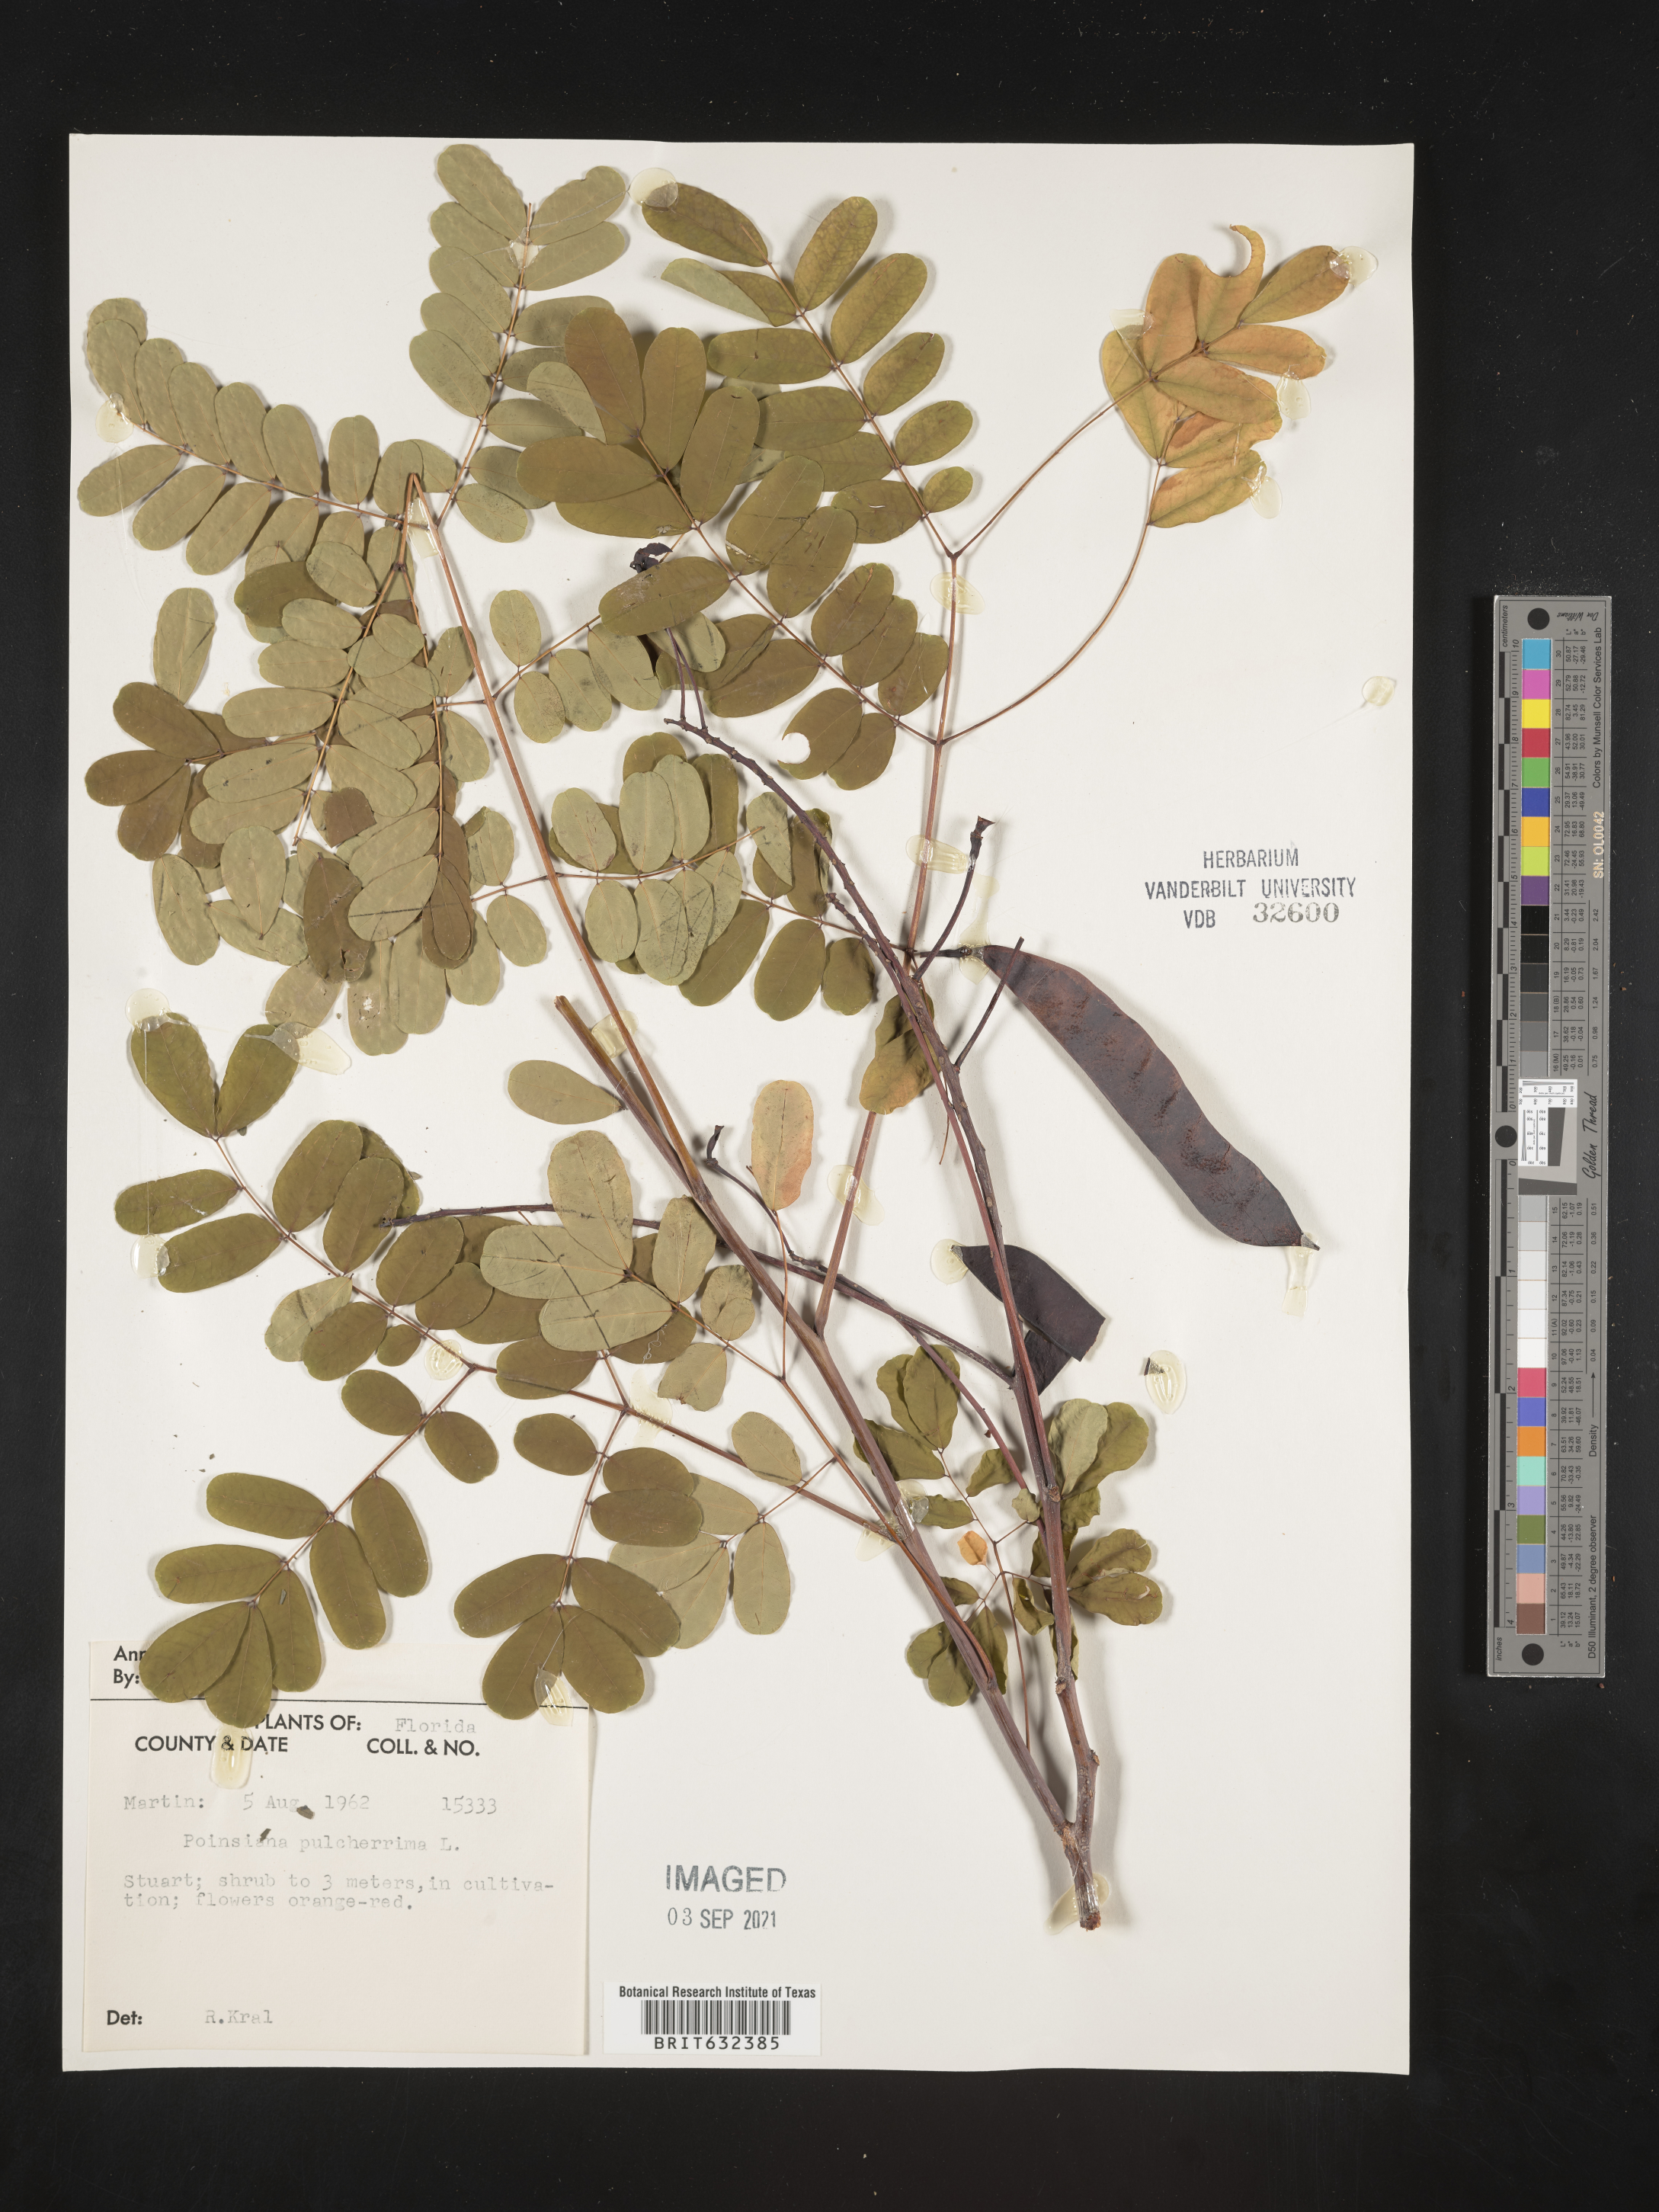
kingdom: Plantae
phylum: Tracheophyta
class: Magnoliopsida
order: Fabales
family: Fabaceae
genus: Caesalpinia
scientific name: Caesalpinia
